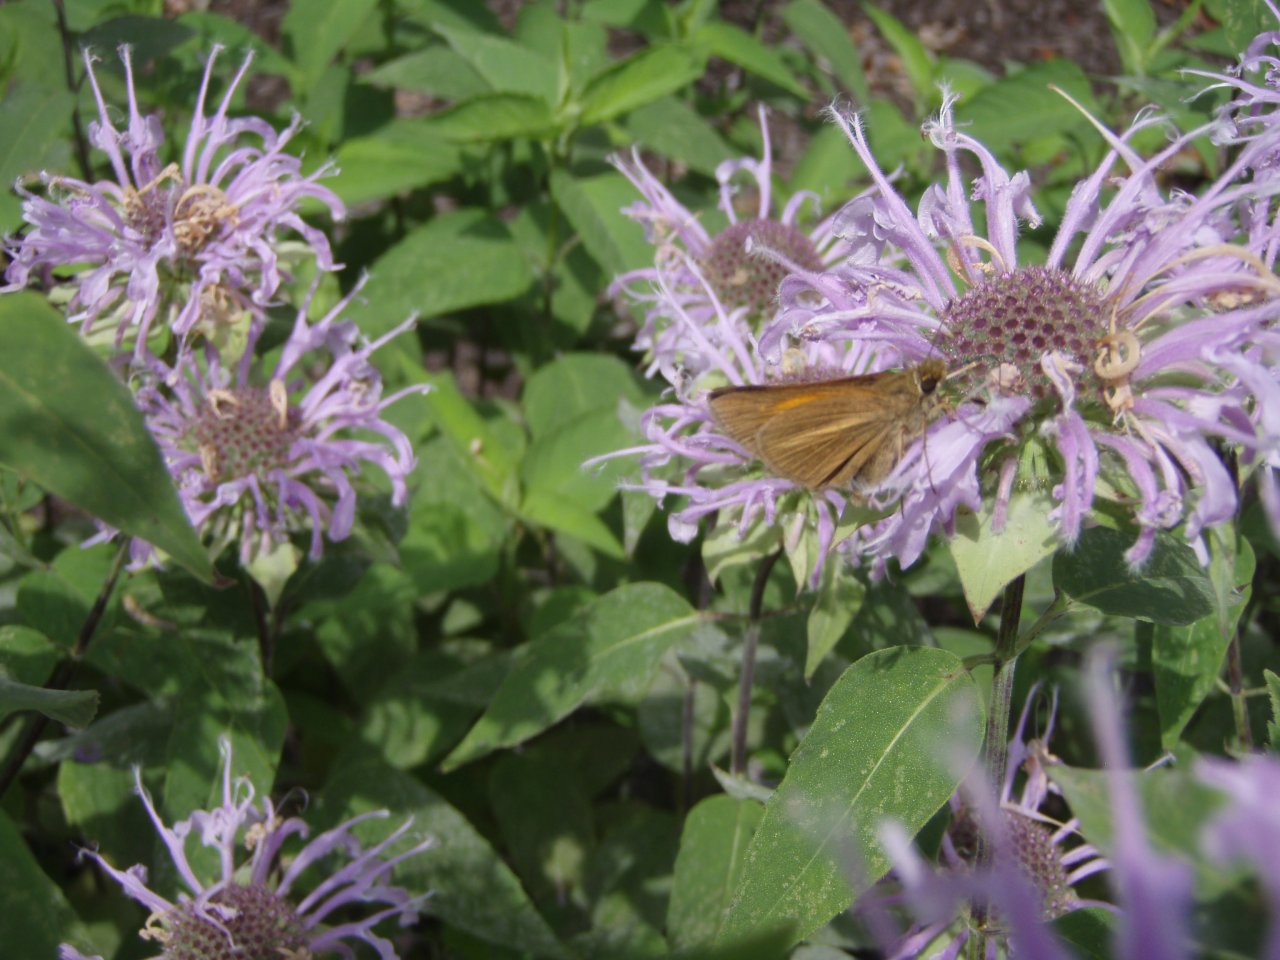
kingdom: Animalia
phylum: Arthropoda
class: Insecta
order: Lepidoptera
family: Hesperiidae
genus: Poanes
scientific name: Poanes aaroni
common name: Aaron's Skipper
